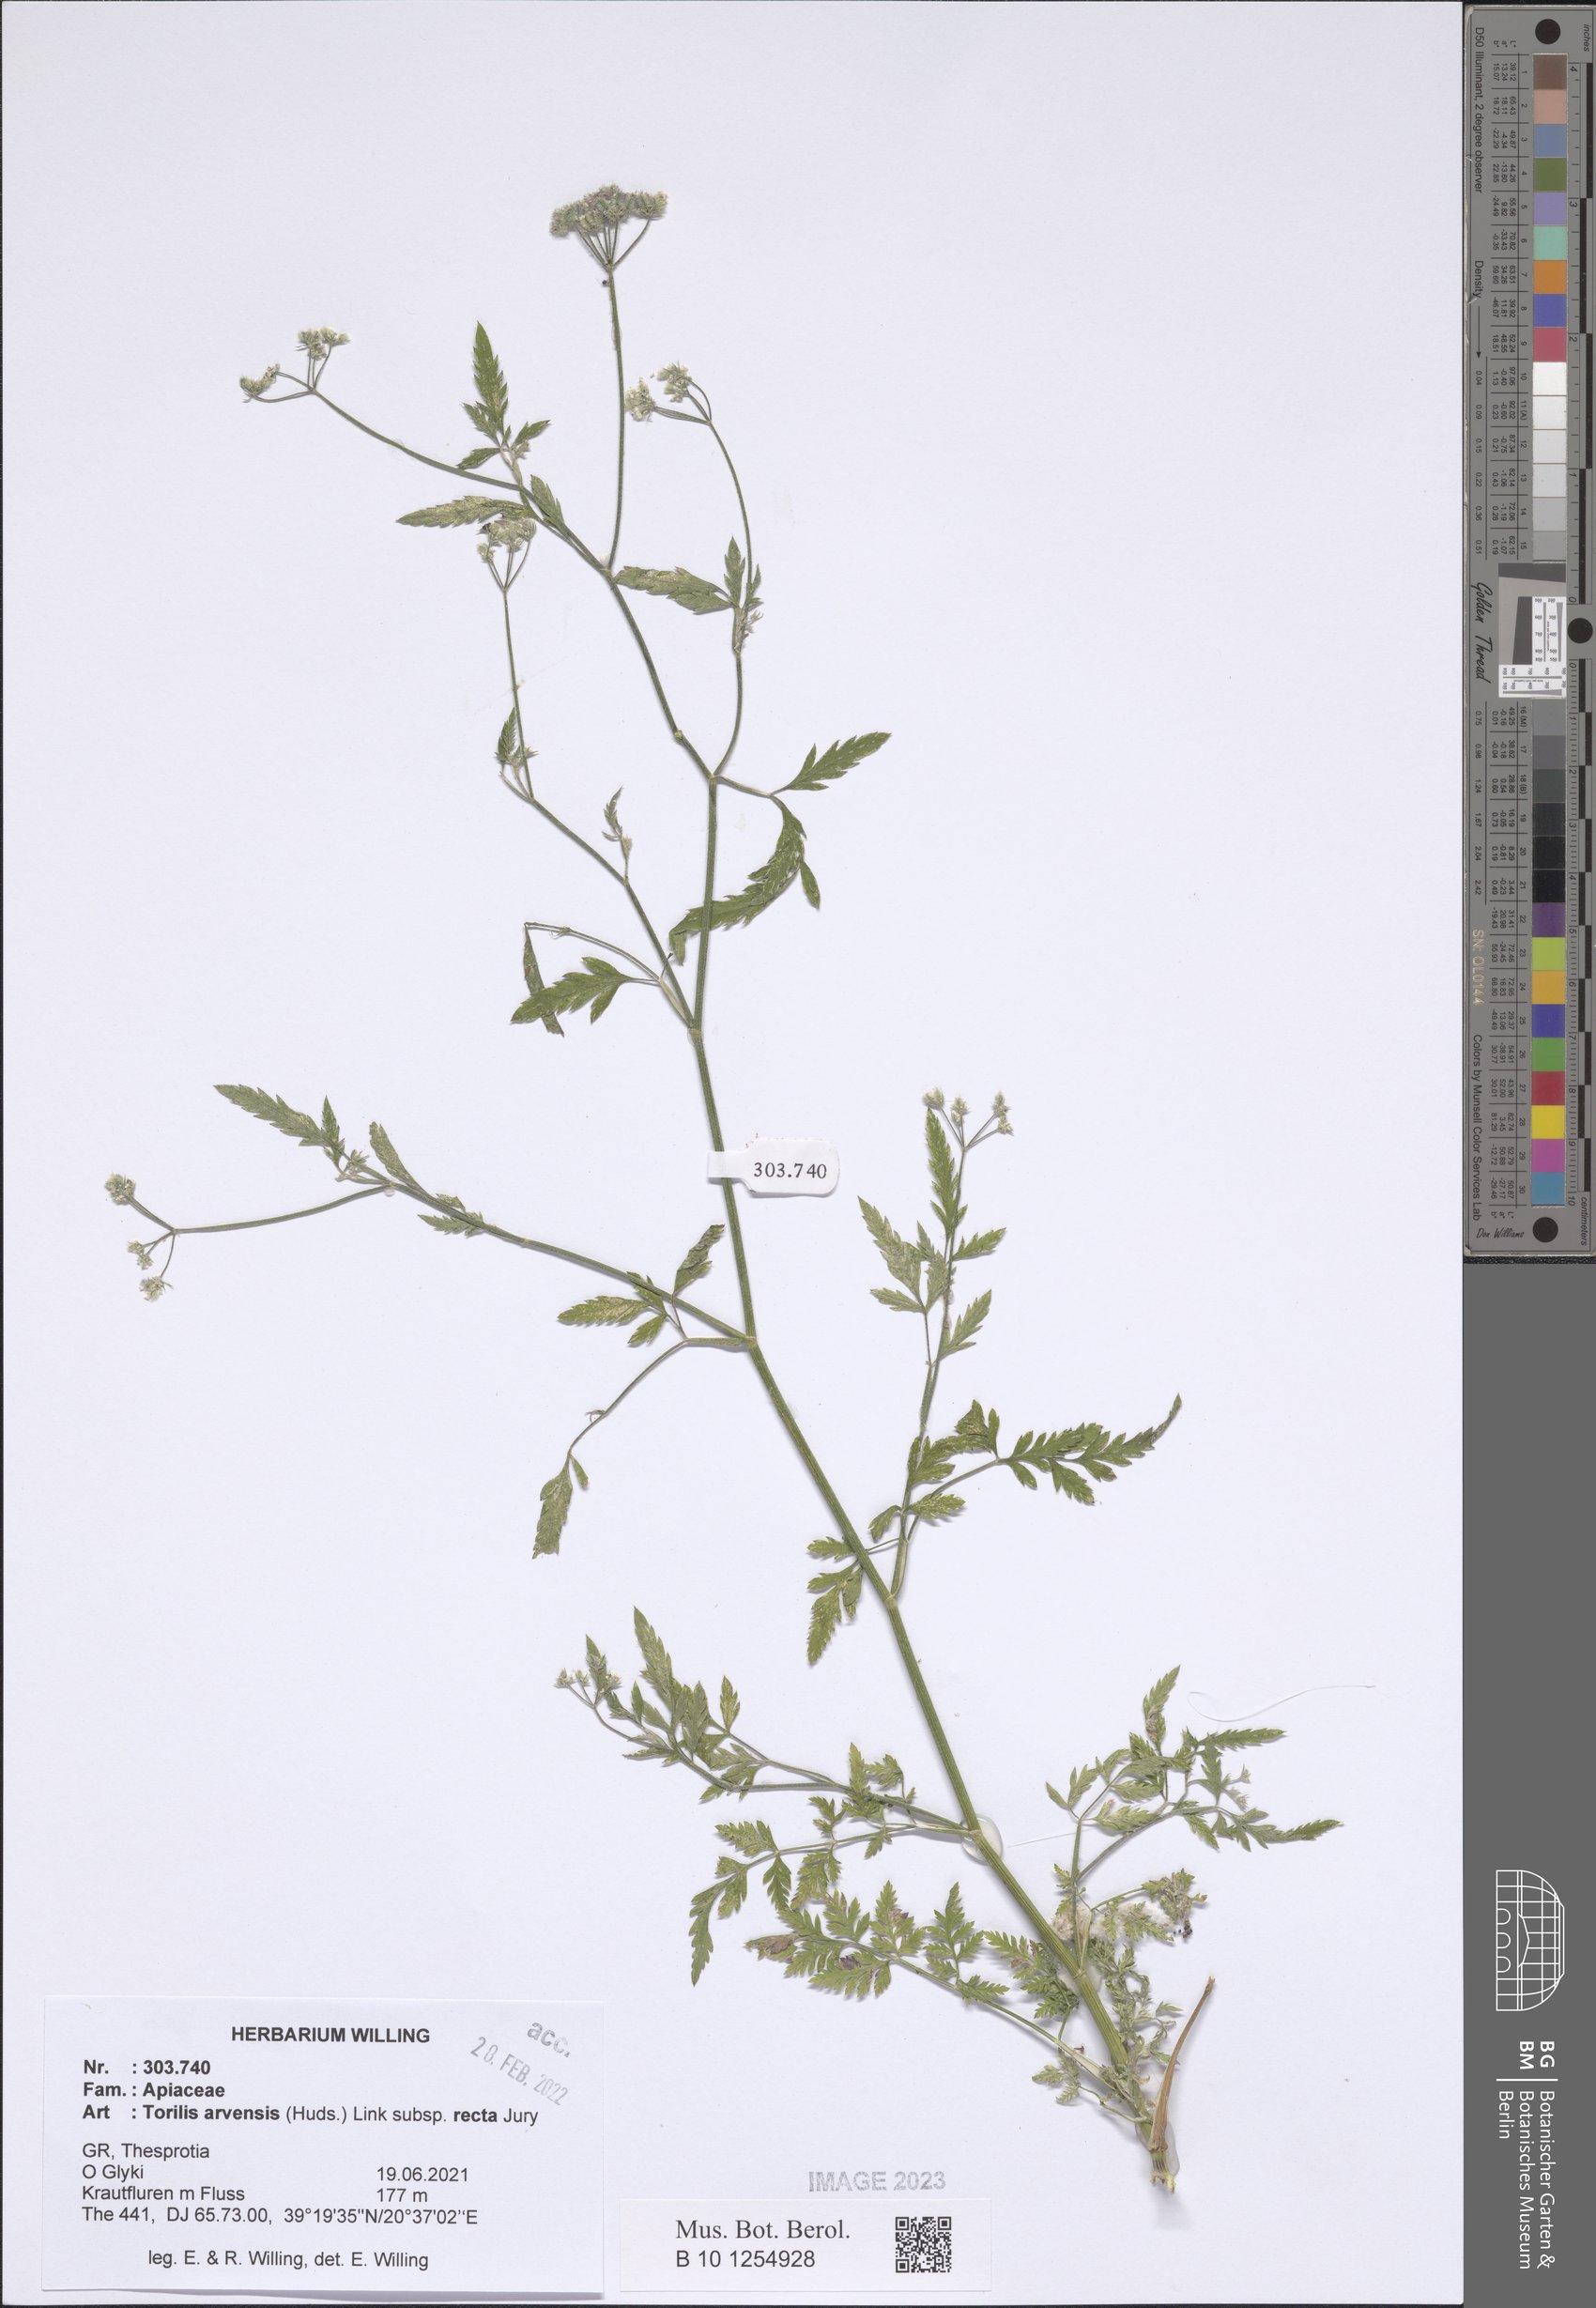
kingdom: Plantae
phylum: Tracheophyta
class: Magnoliopsida
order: Apiales
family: Apiaceae
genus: Torilis
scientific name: Torilis arvensis
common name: Spreading hedge-parsley
